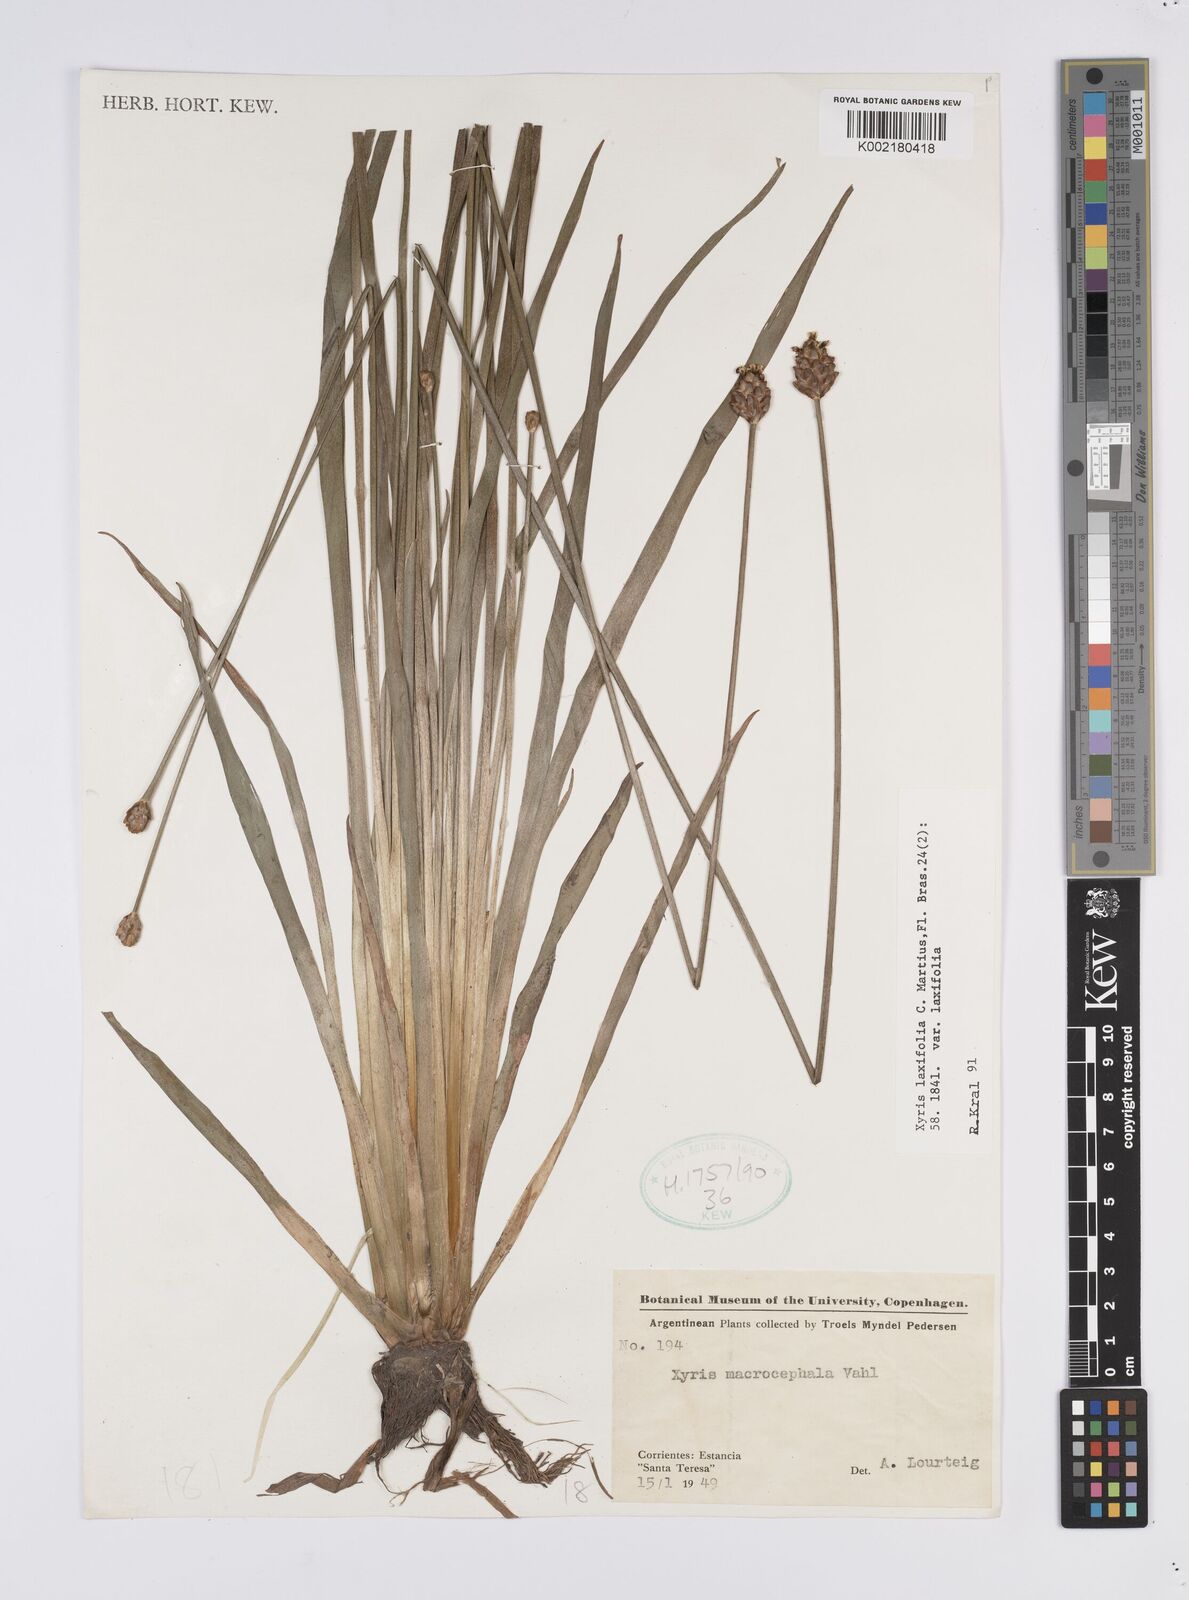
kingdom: Plantae
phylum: Tracheophyta
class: Liliopsida
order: Poales
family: Xyridaceae
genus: Xyris
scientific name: Xyris laxifolia
